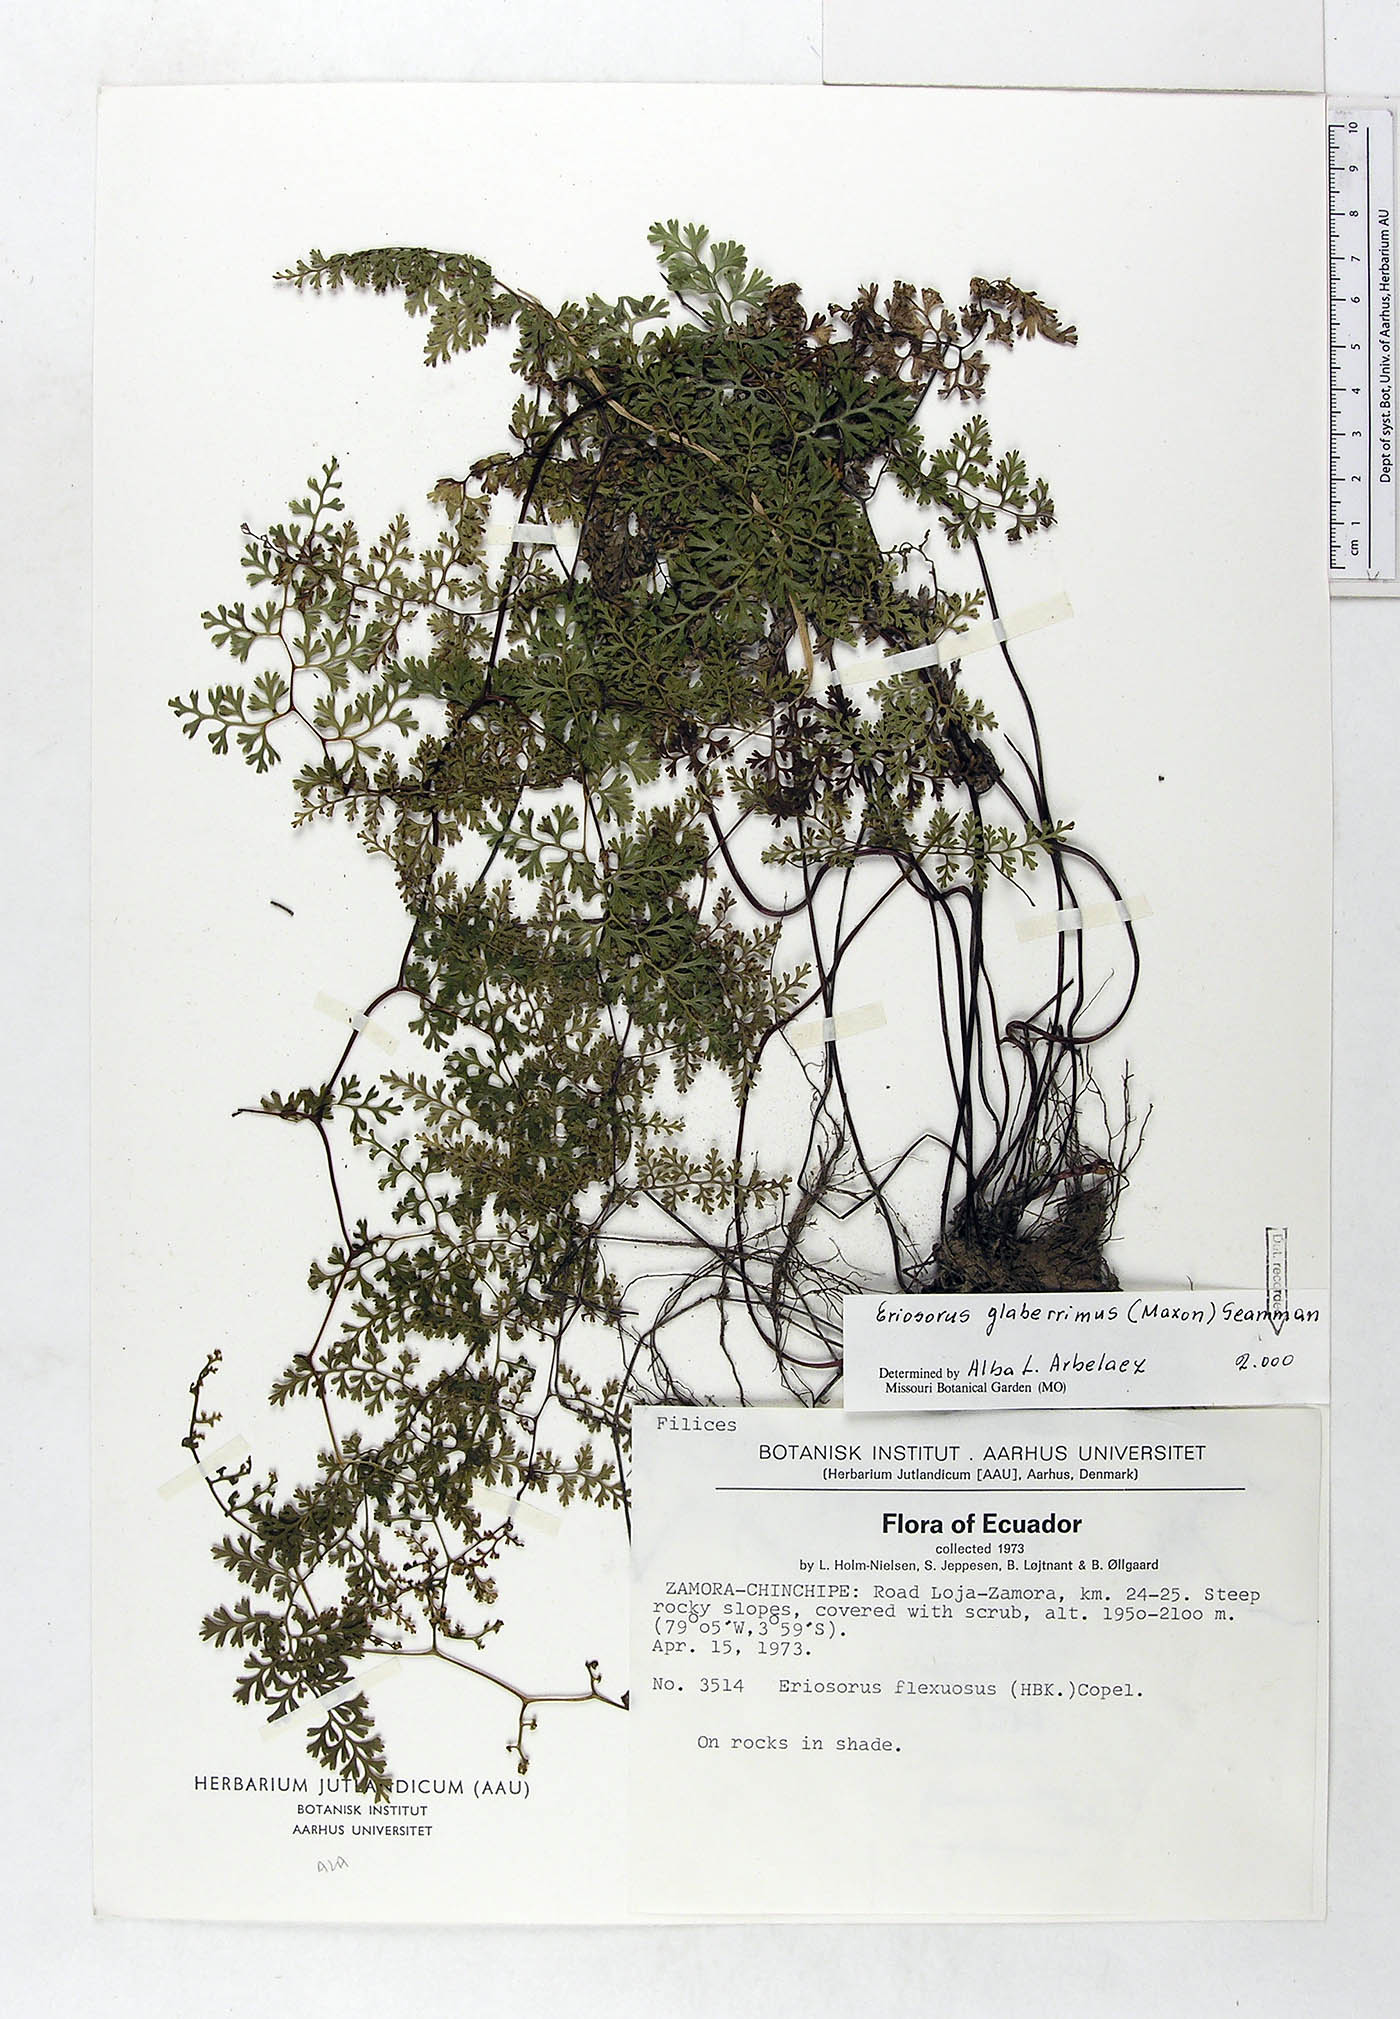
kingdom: Plantae
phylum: Tracheophyta
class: Polypodiopsida
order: Polypodiales
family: Pteridaceae
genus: Jamesonia
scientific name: Jamesonia glaberrima
